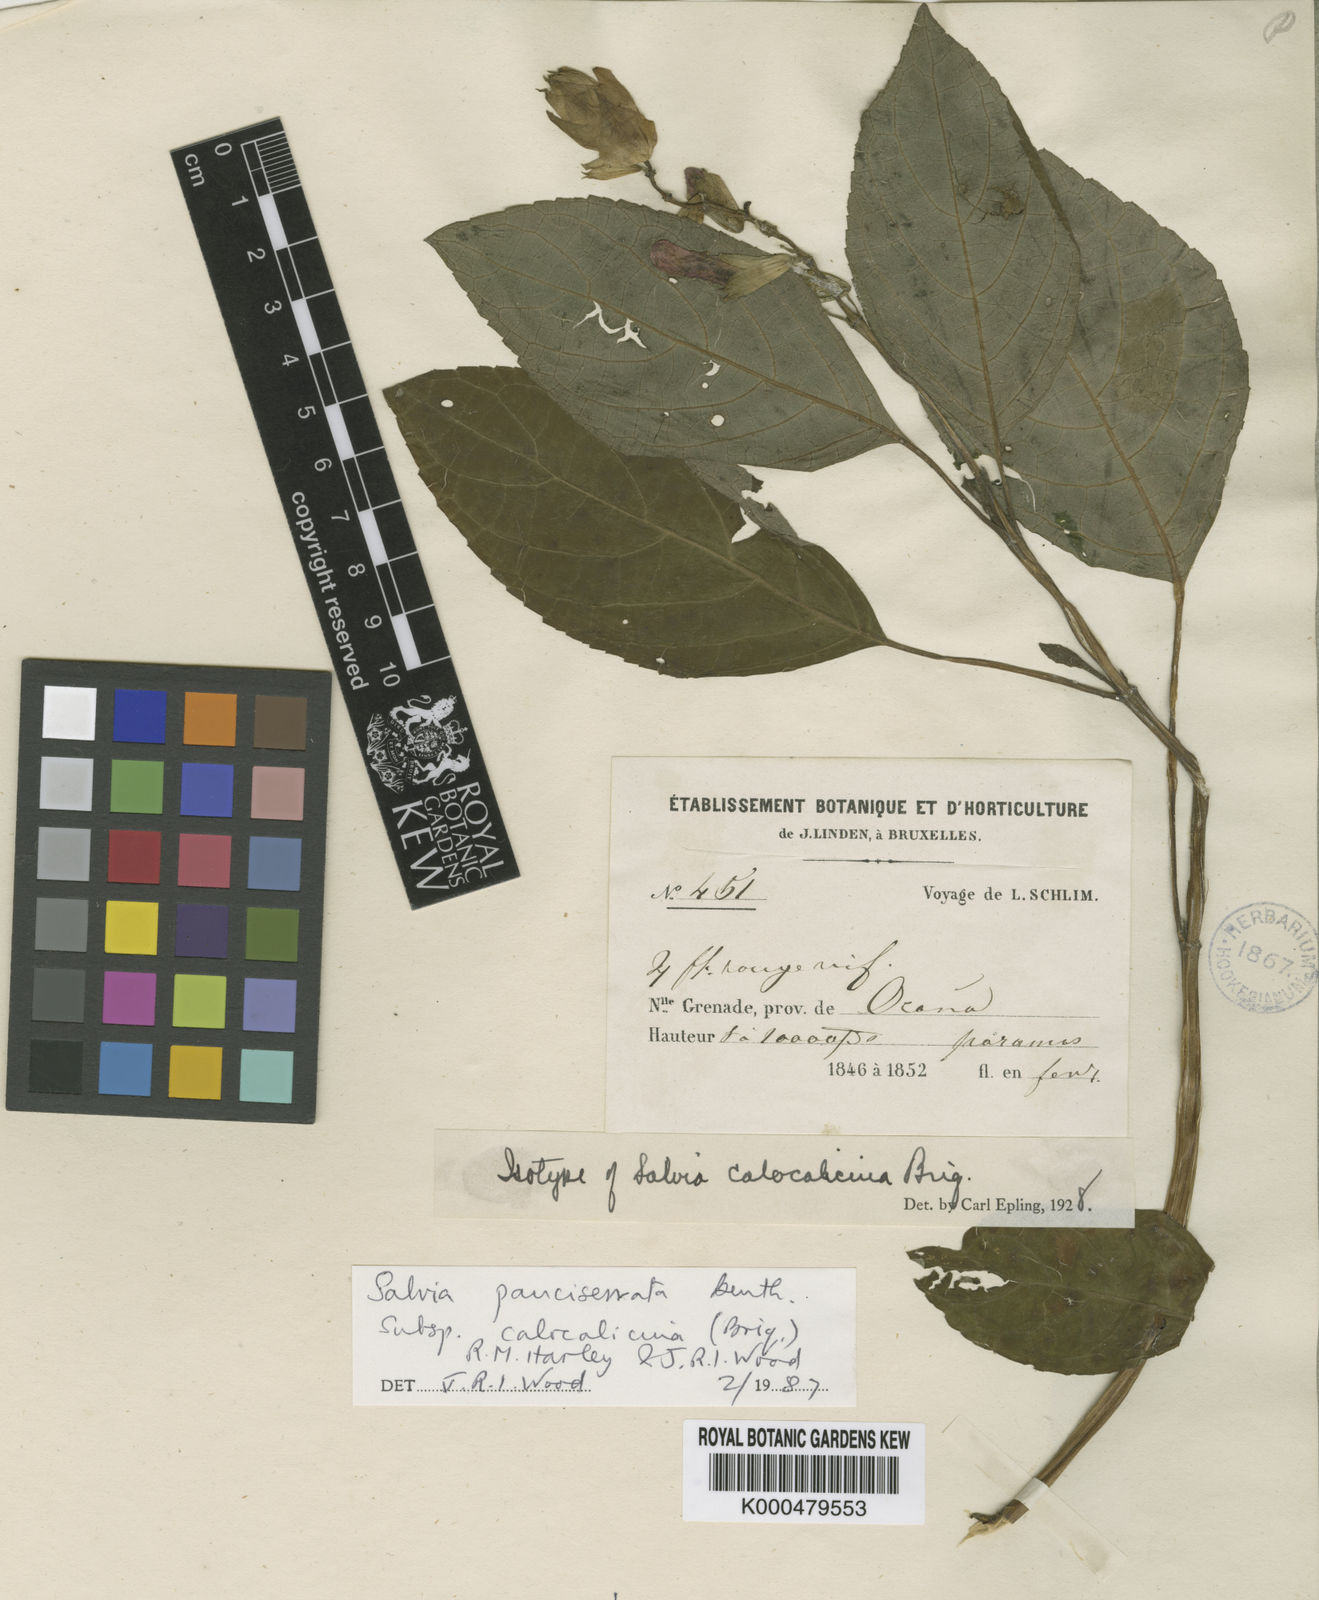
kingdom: Plantae
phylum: Tracheophyta
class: Magnoliopsida
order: Lamiales
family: Lamiaceae
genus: Salvia
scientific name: Salvia pauciserrata
